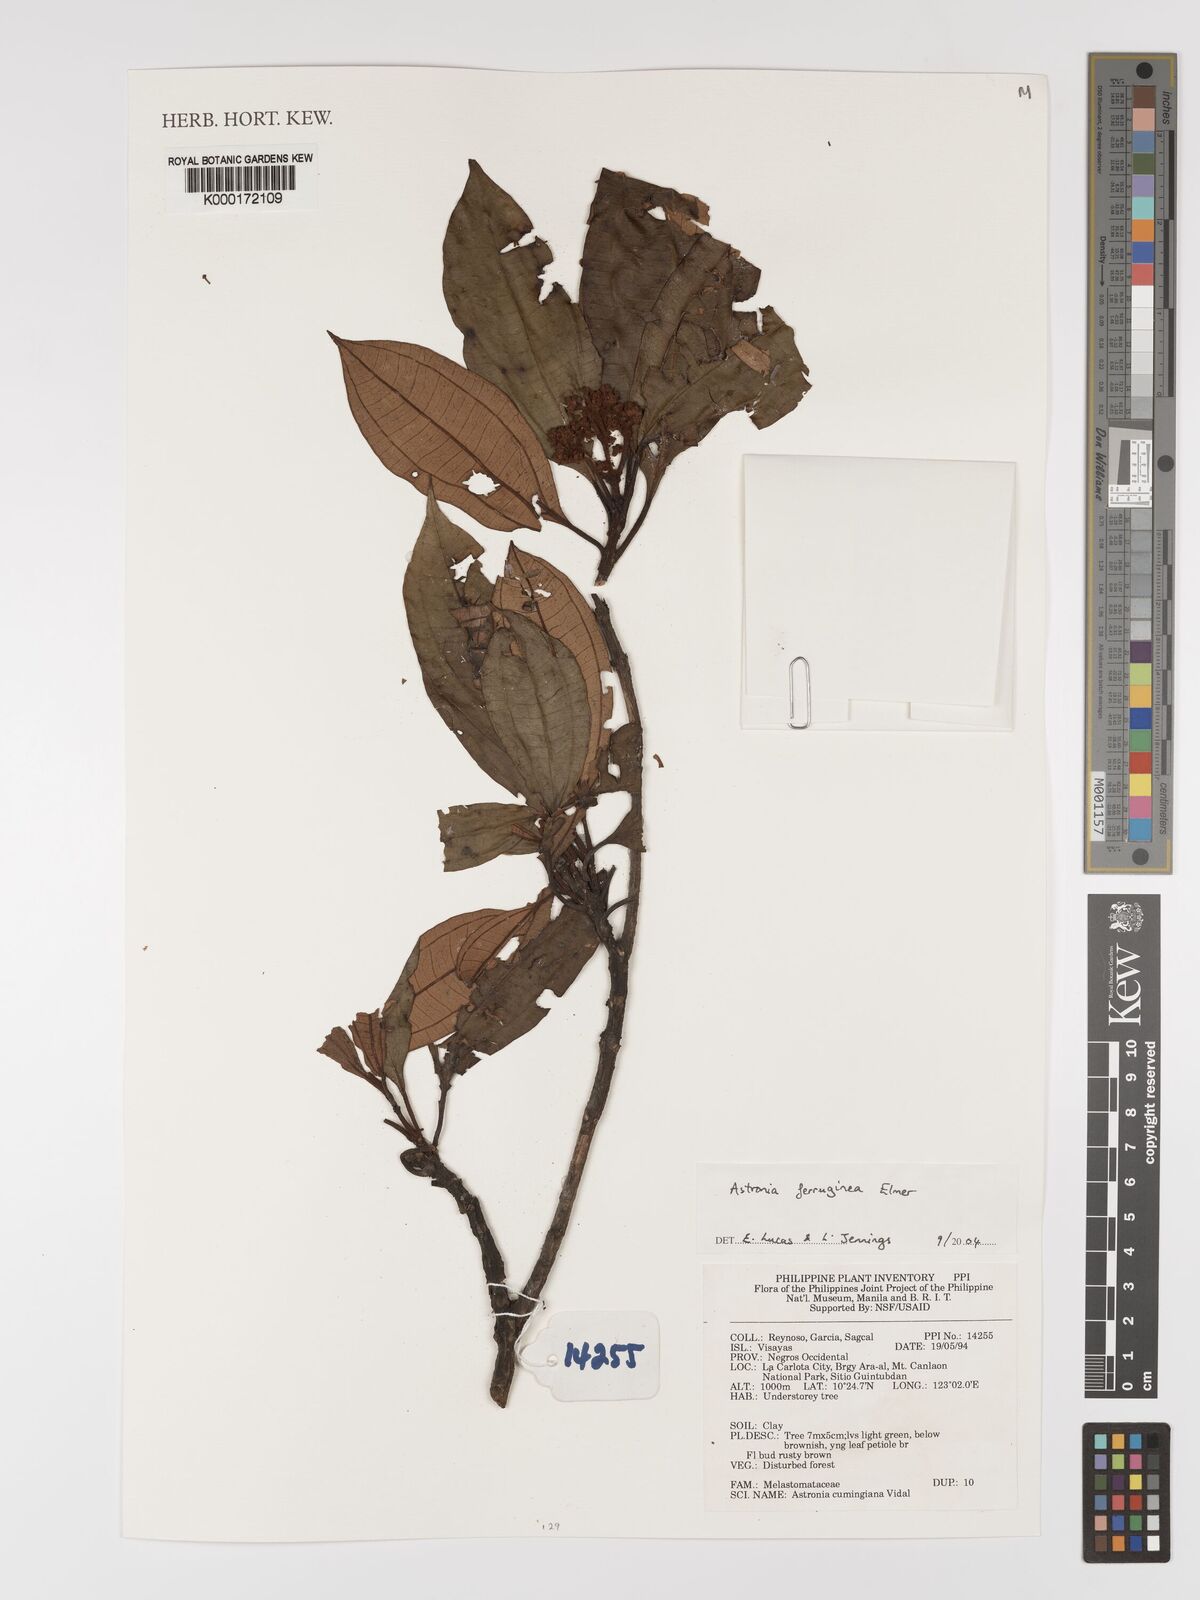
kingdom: Plantae
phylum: Tracheophyta
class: Magnoliopsida
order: Myrtales
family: Melastomataceae
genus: Astronia
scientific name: Astronia ferruginea
